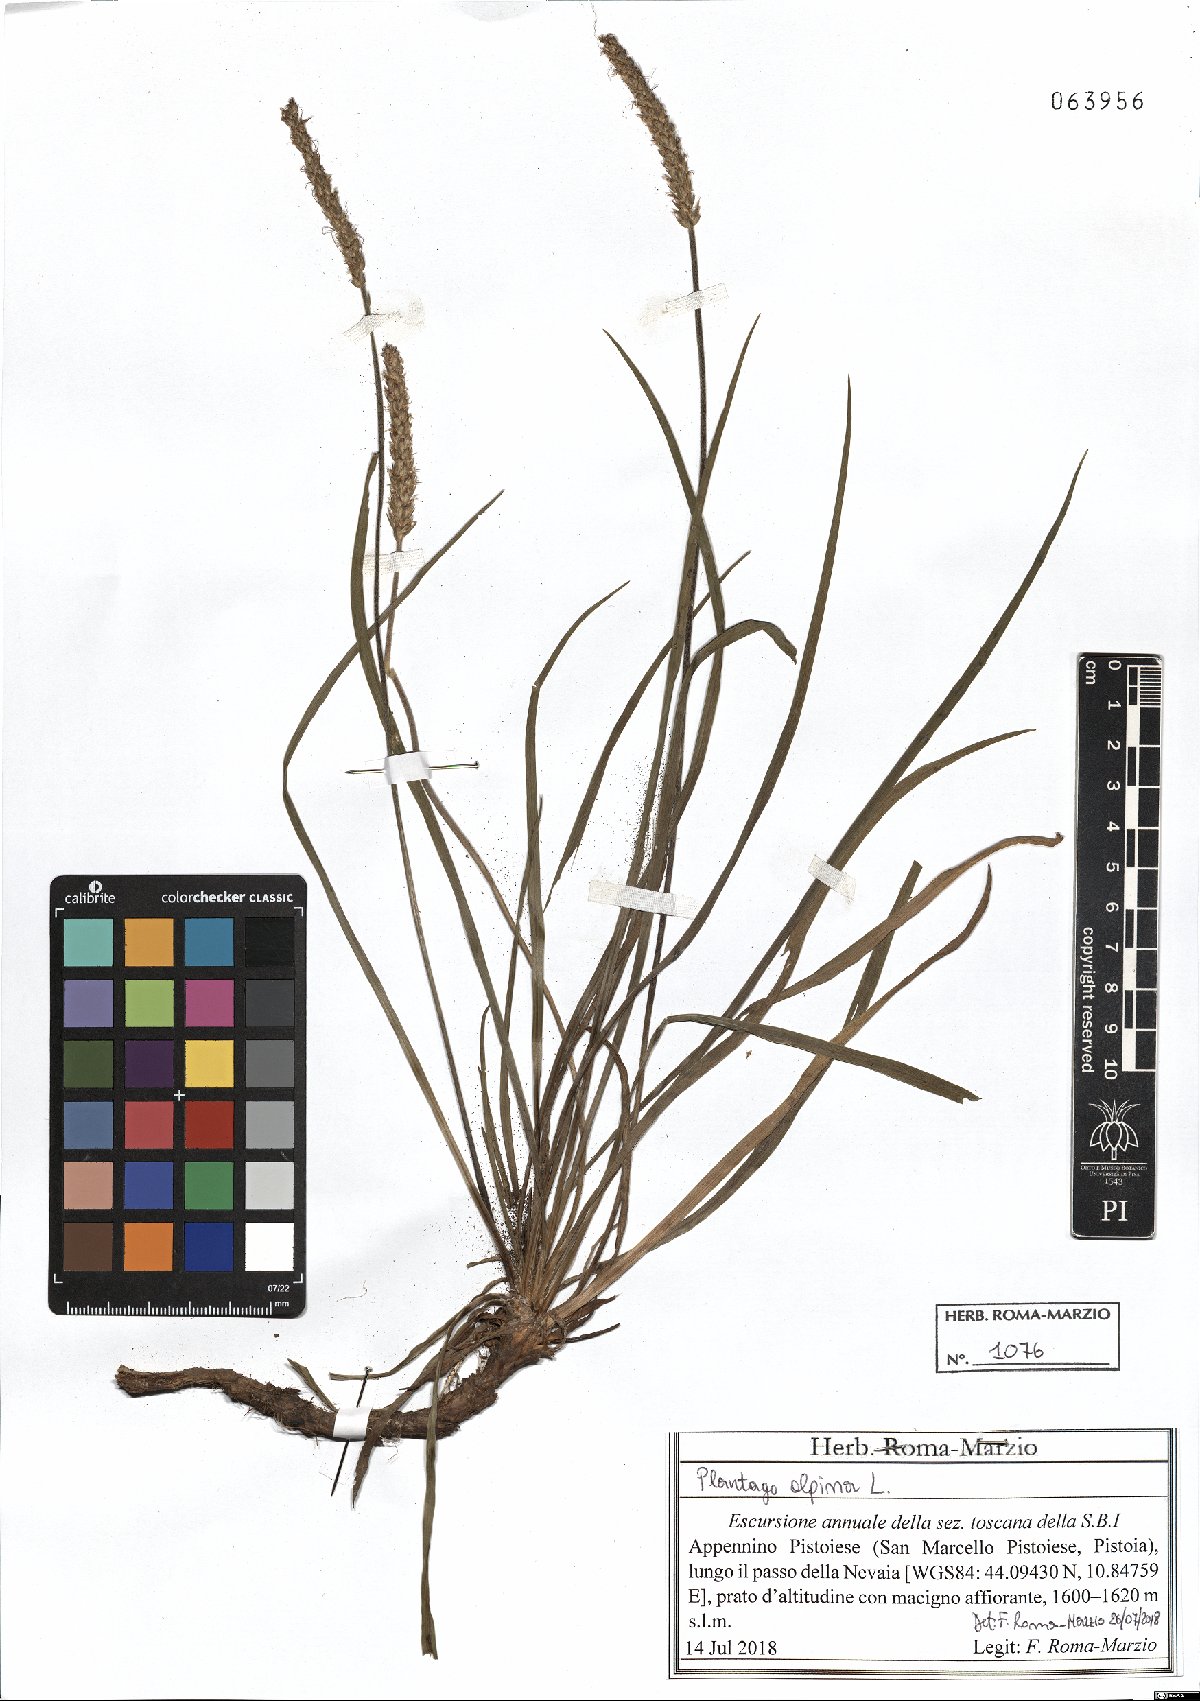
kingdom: Plantae
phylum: Tracheophyta
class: Magnoliopsida
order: Lamiales
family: Plantaginaceae
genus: Plantago
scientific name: Plantago alpina
